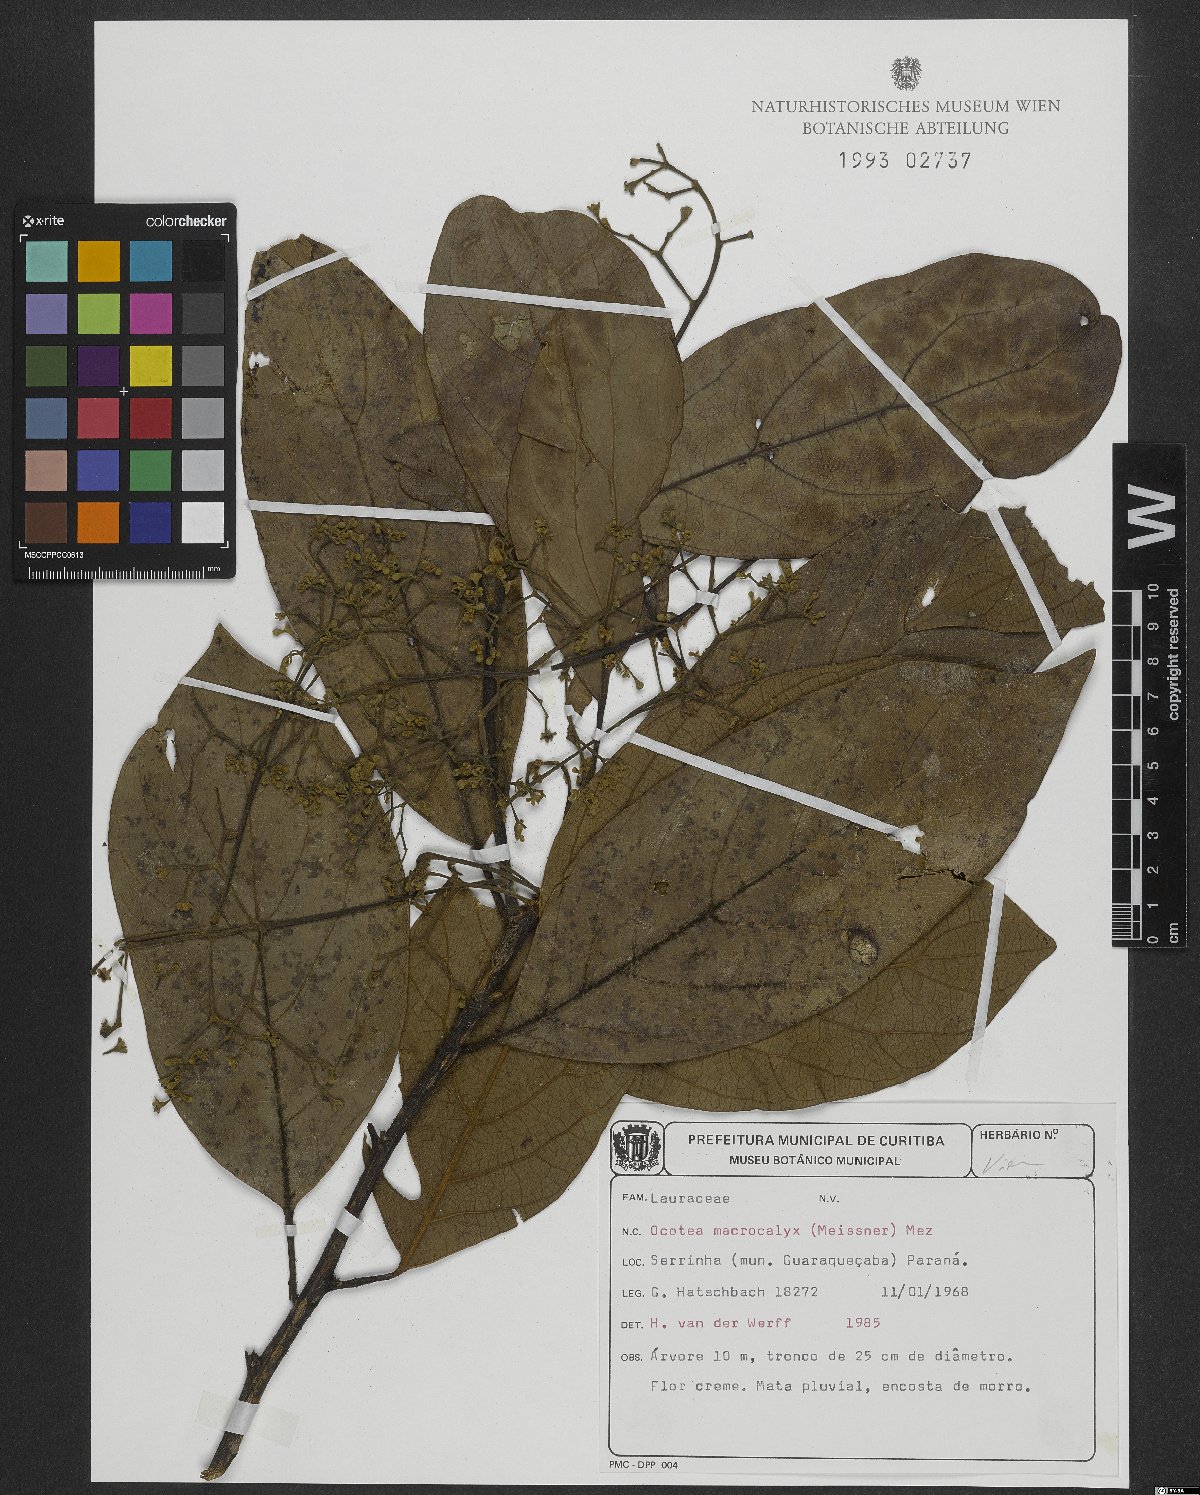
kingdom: Plantae
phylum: Tracheophyta
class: Magnoliopsida
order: Laurales
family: Lauraceae
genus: Rhodostemonodaphne
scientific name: Rhodostemonodaphne macrocalyx
